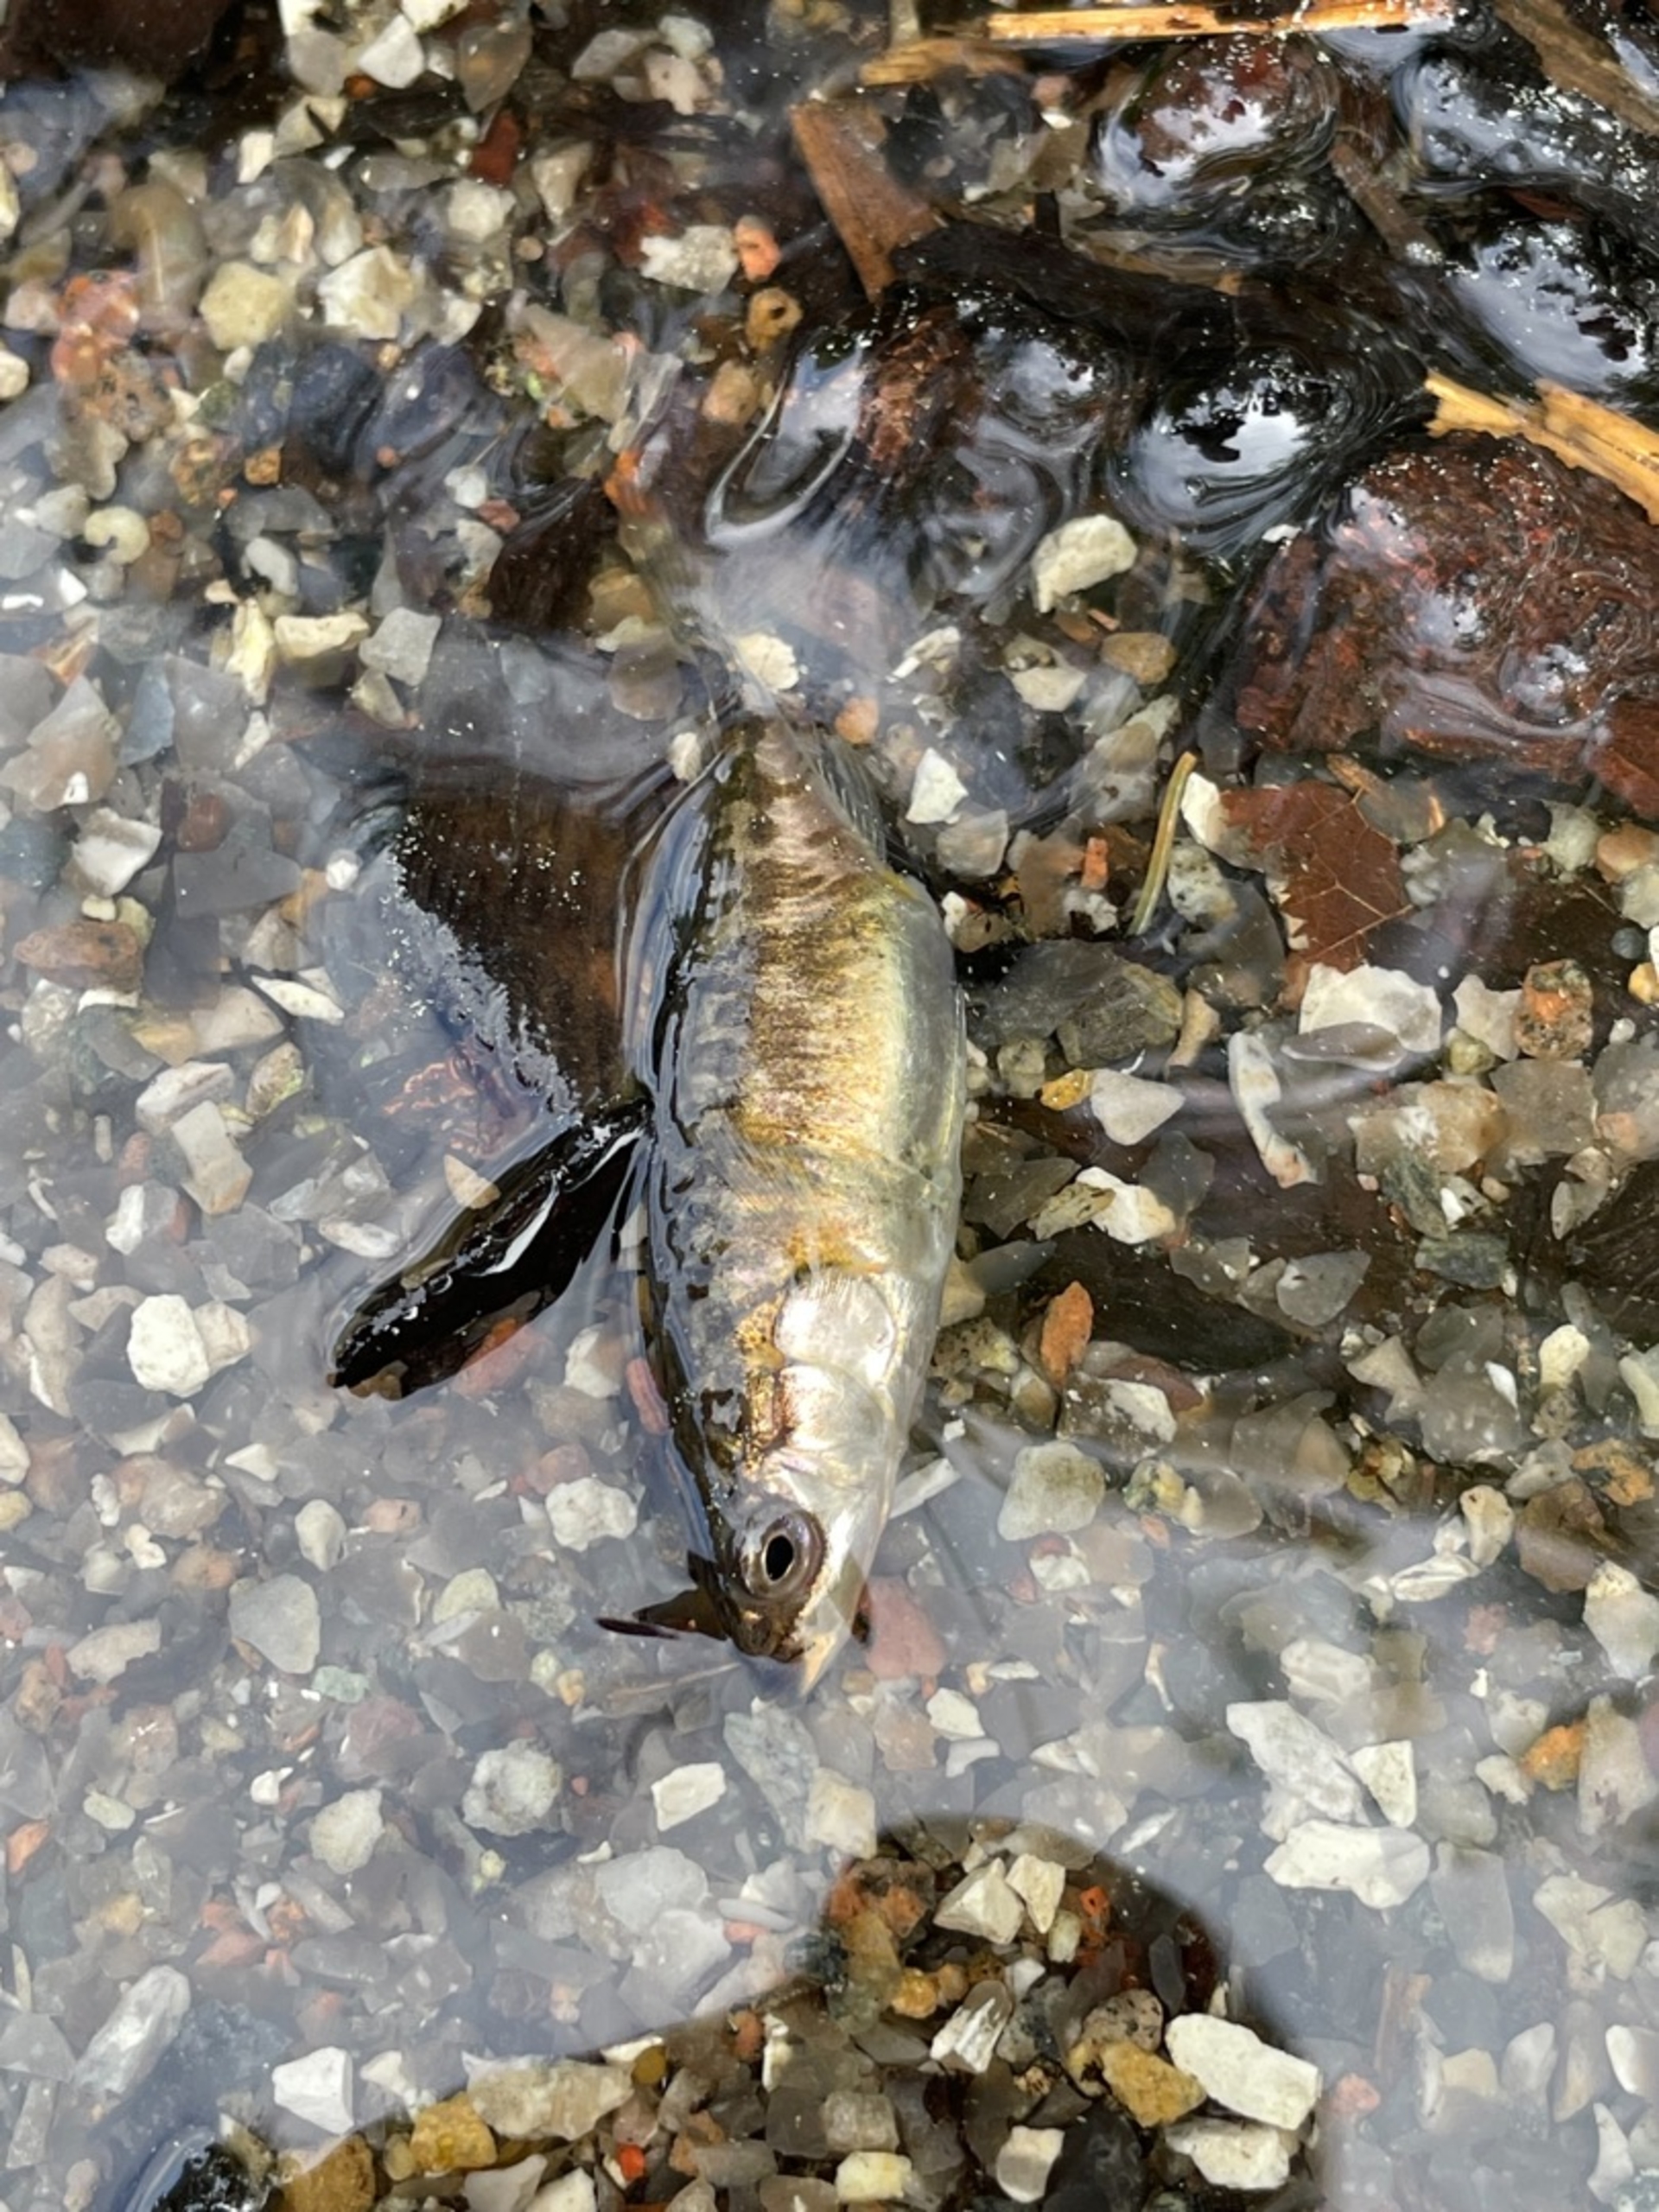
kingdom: Animalia
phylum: Chordata
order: Gasterosteiformes
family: Gasterosteidae
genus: Gasterosteus
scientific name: Gasterosteus aculeatus
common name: Trepigget hundestejle
